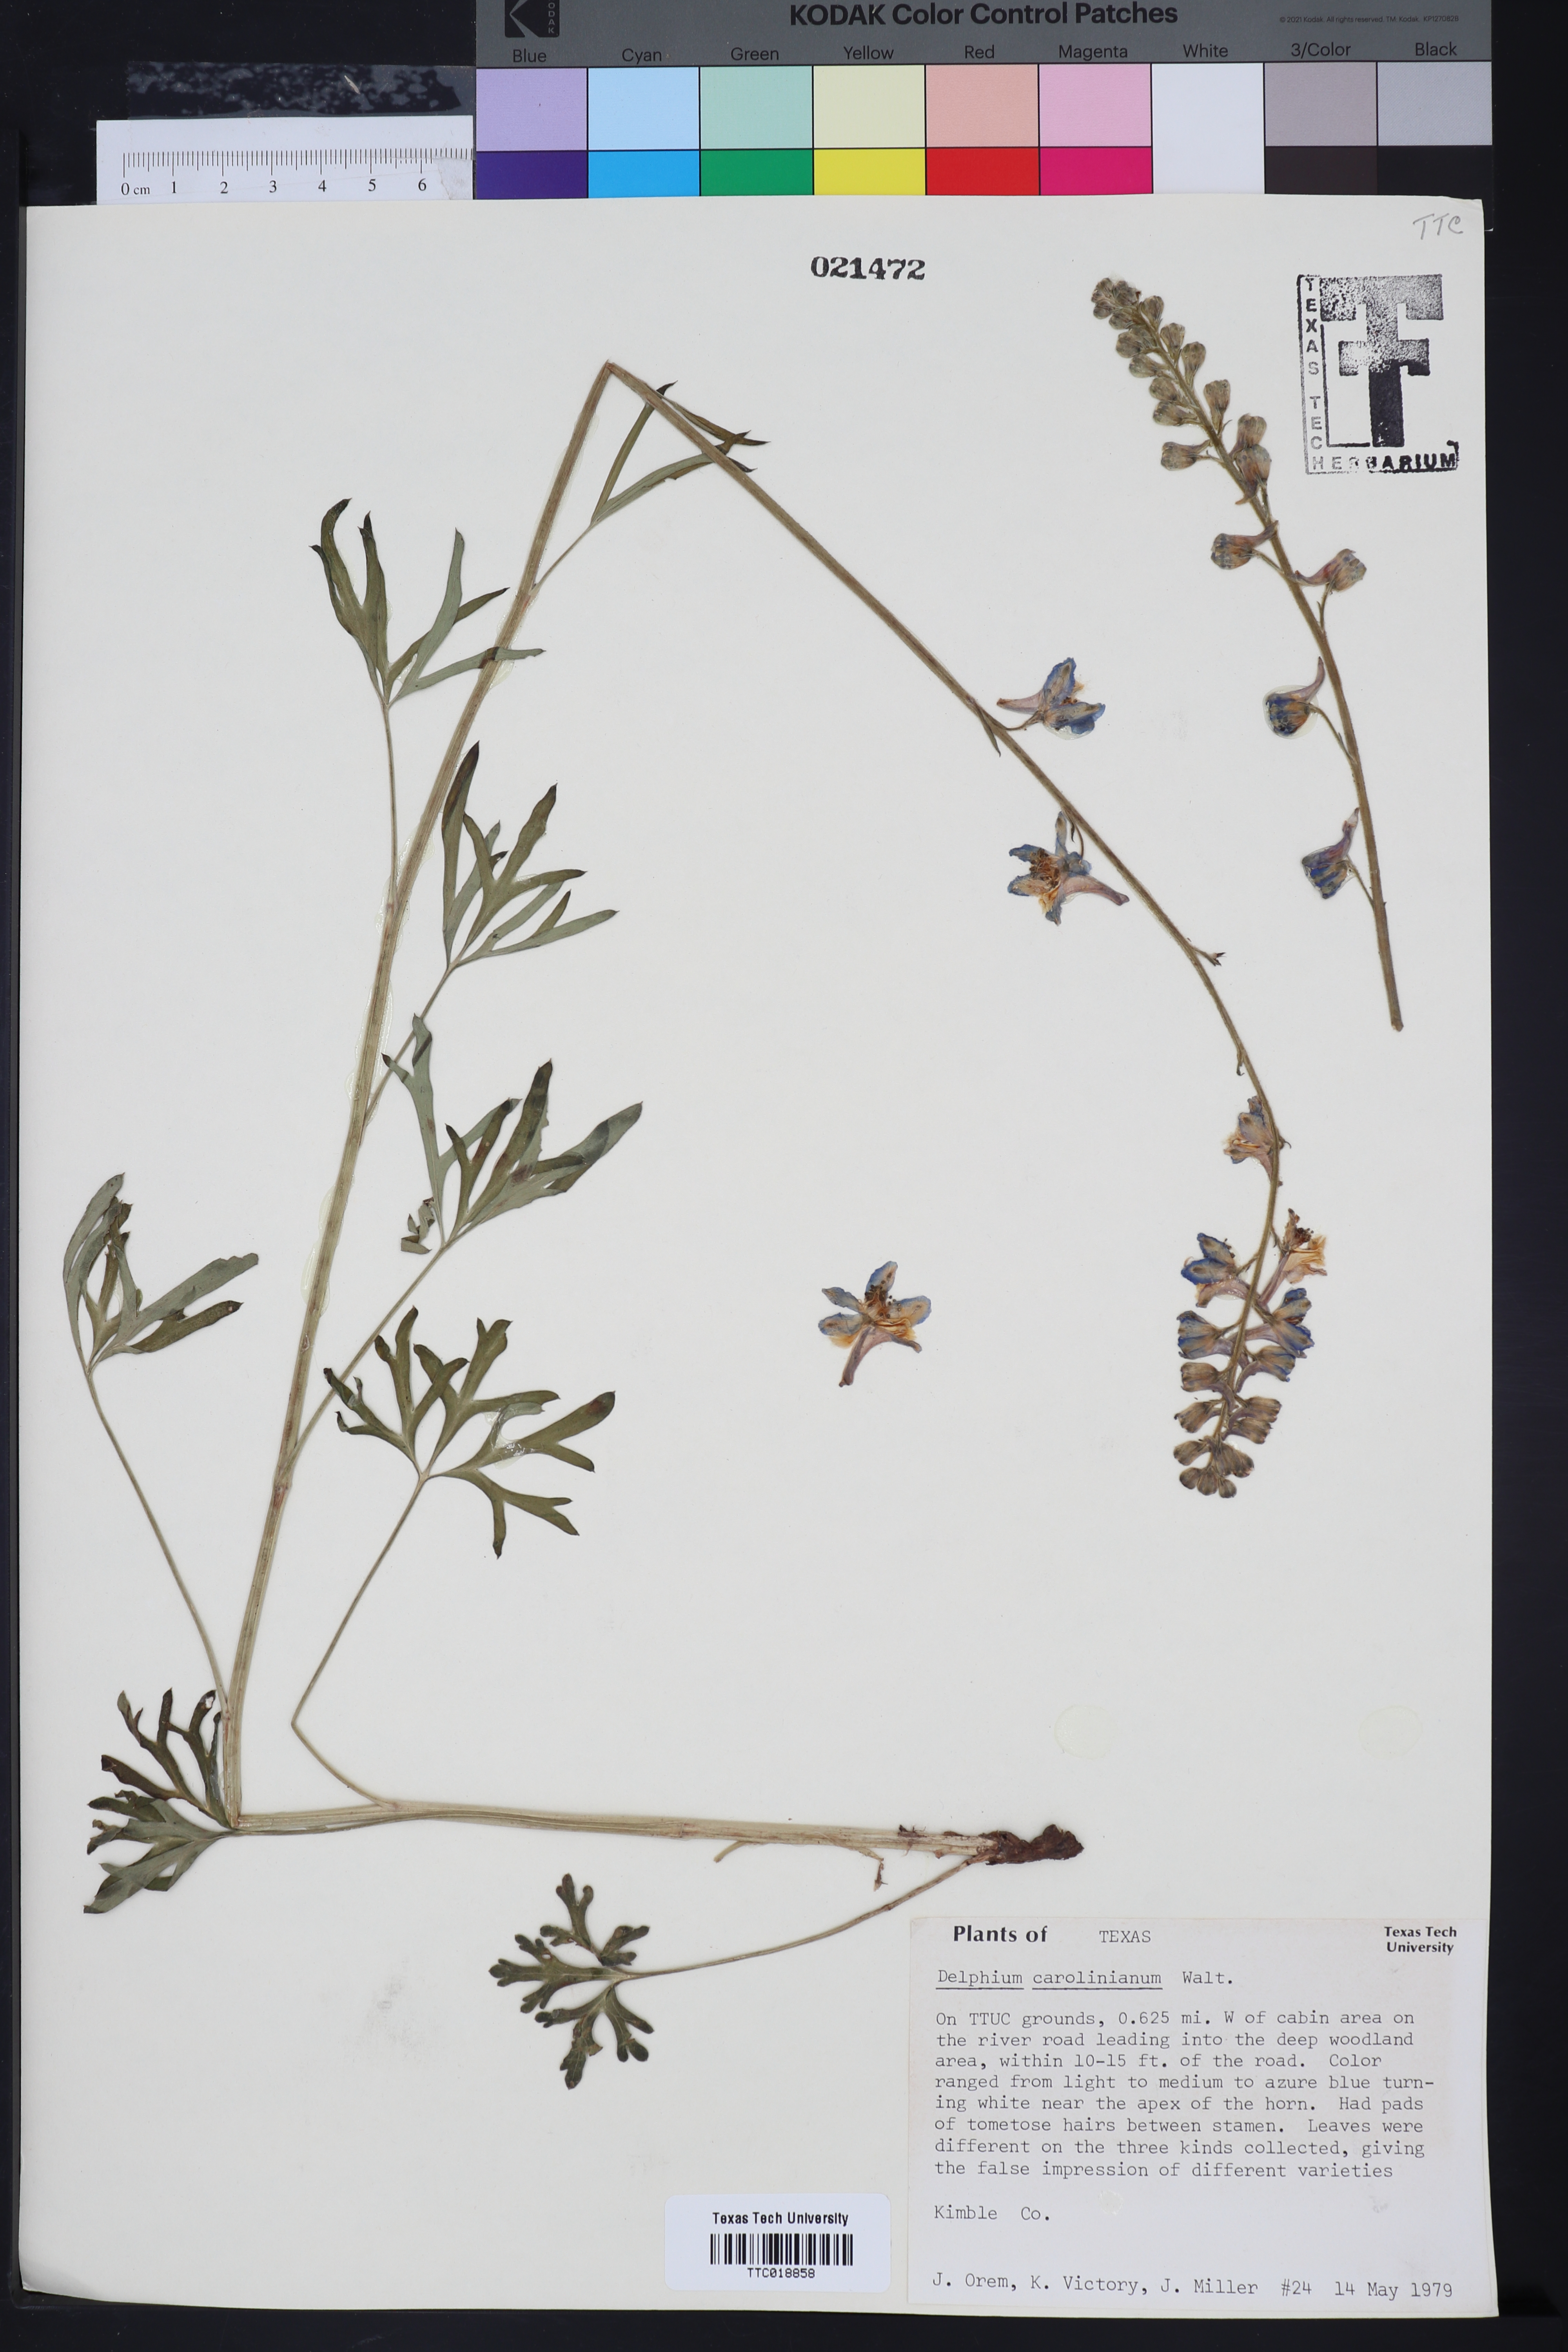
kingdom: Plantae
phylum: Tracheophyta
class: Magnoliopsida
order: Ranunculales
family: Ranunculaceae
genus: Delphinium
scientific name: Delphinium carolinianum
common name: Carolina larkspur
